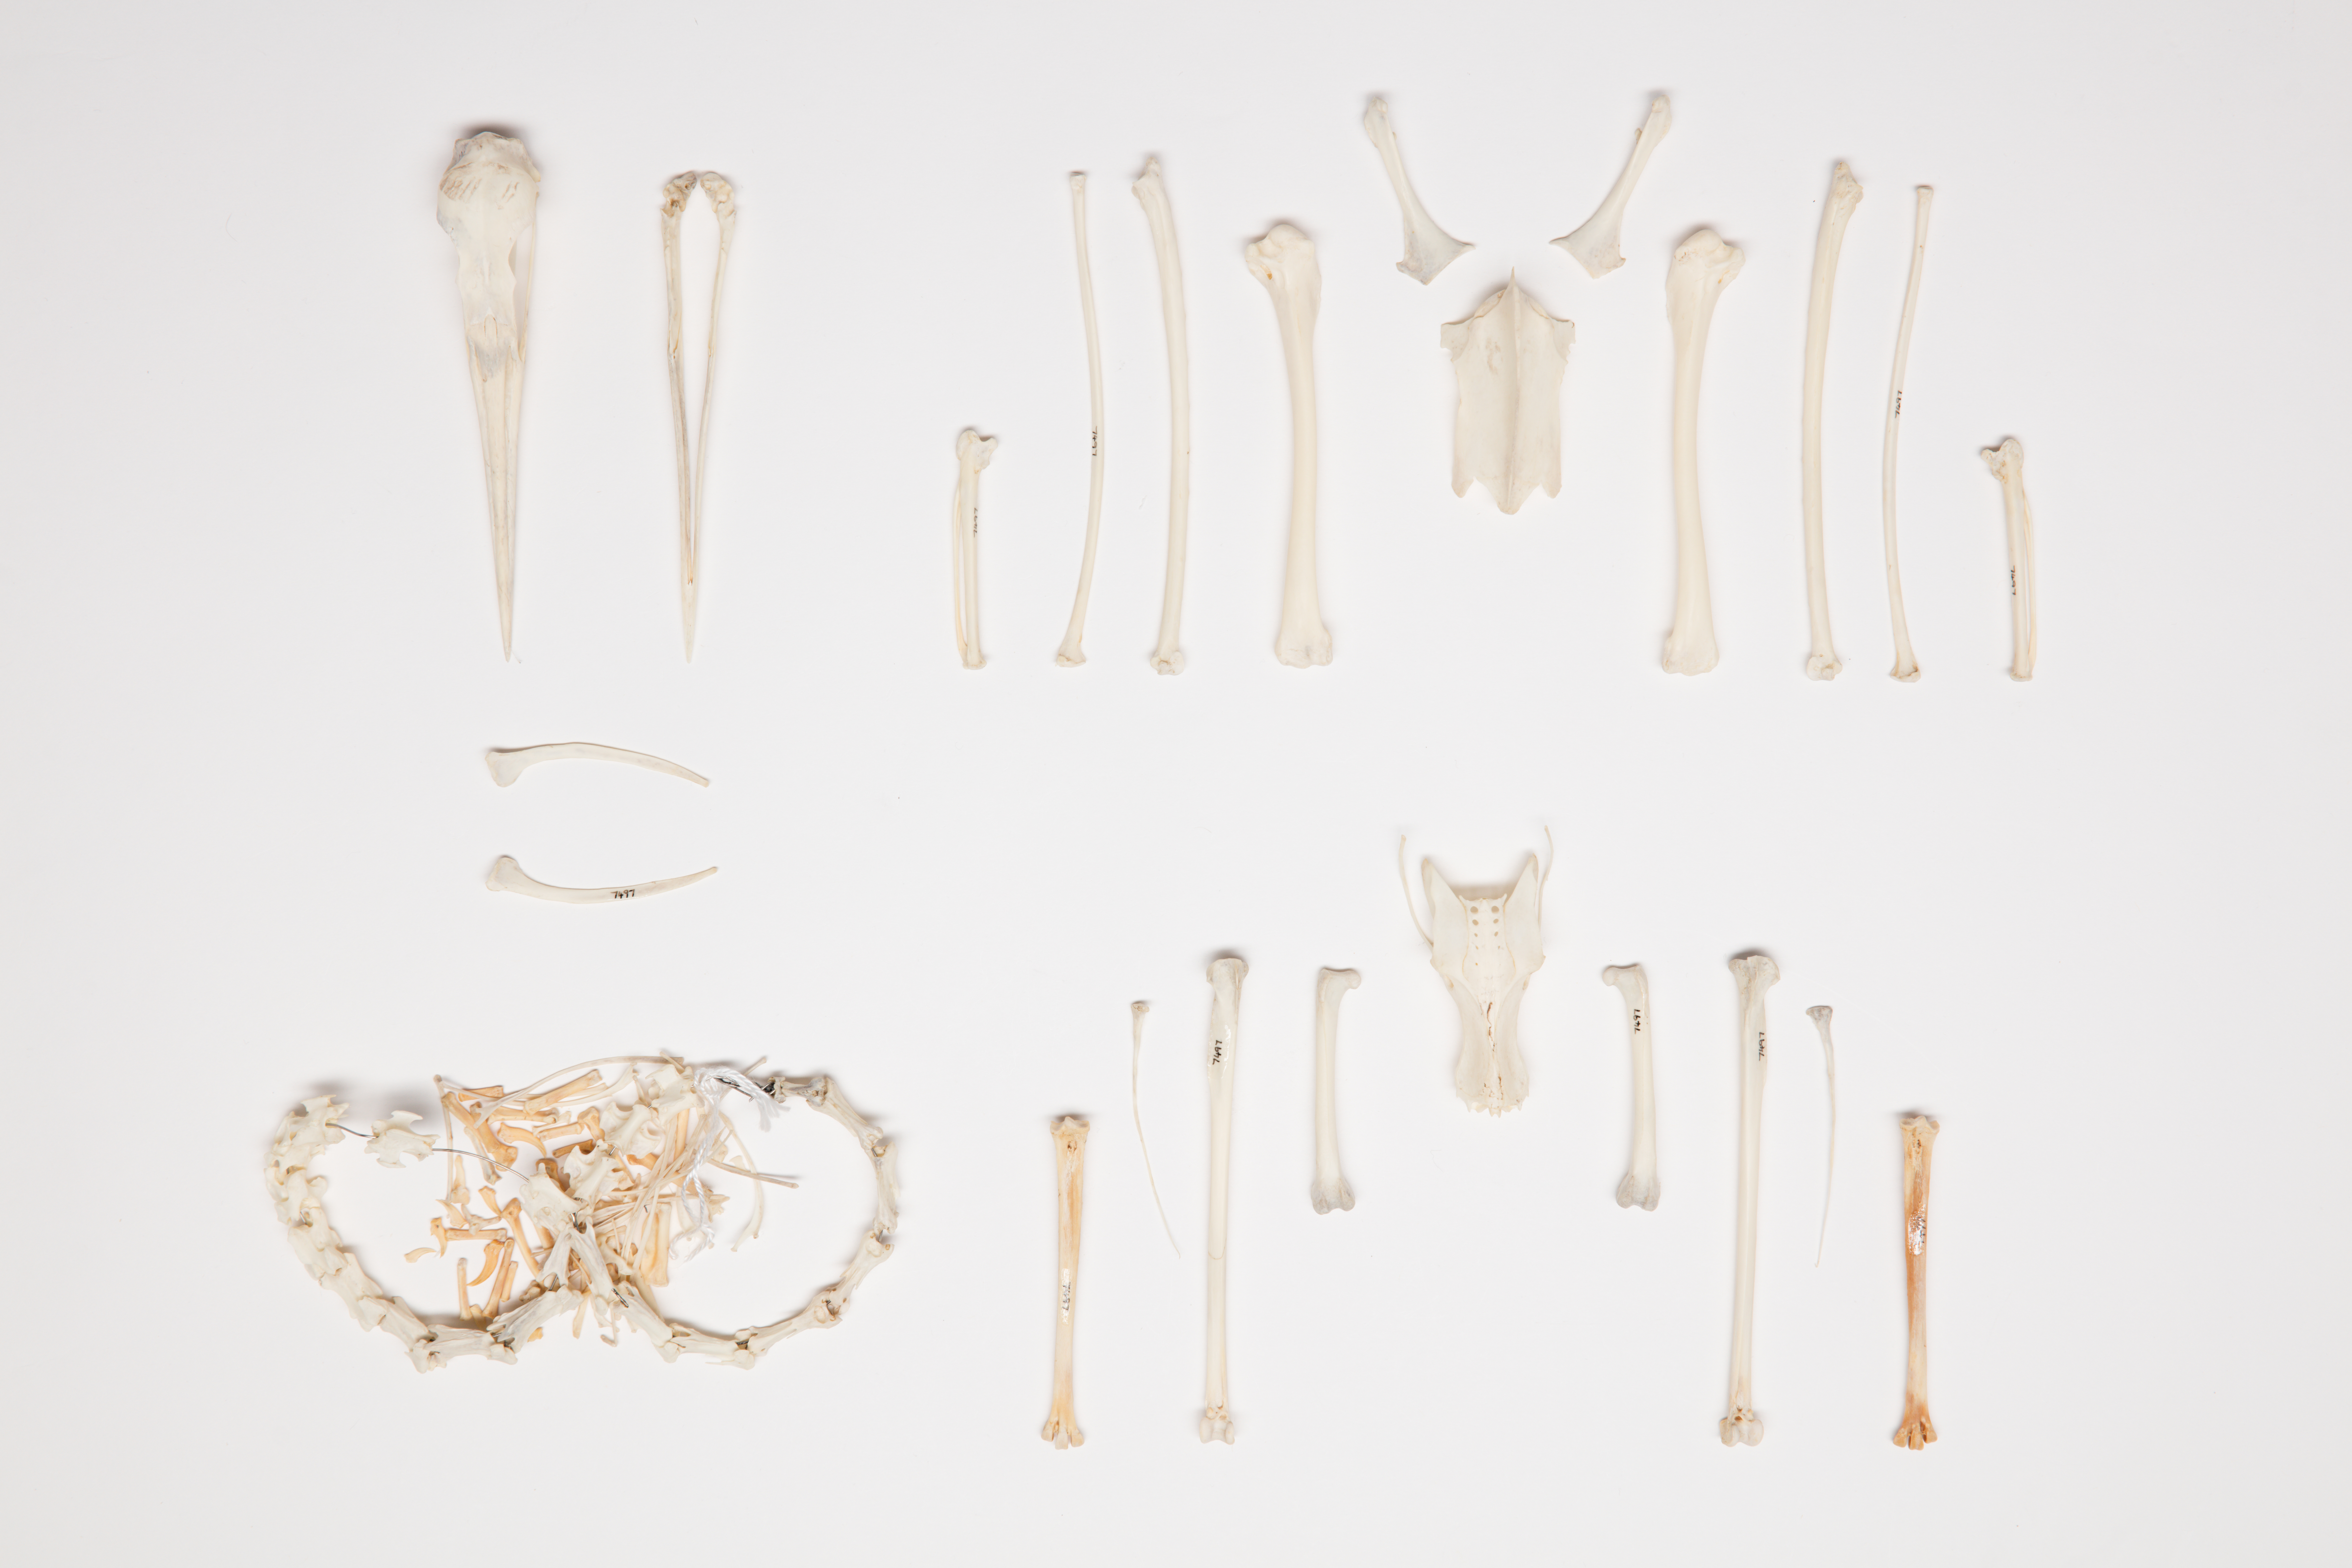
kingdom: Animalia
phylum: Chordata
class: Aves
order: Pelecaniformes
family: Ardeidae
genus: Egretta
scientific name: Egretta sacra
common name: Pacific reef heron
